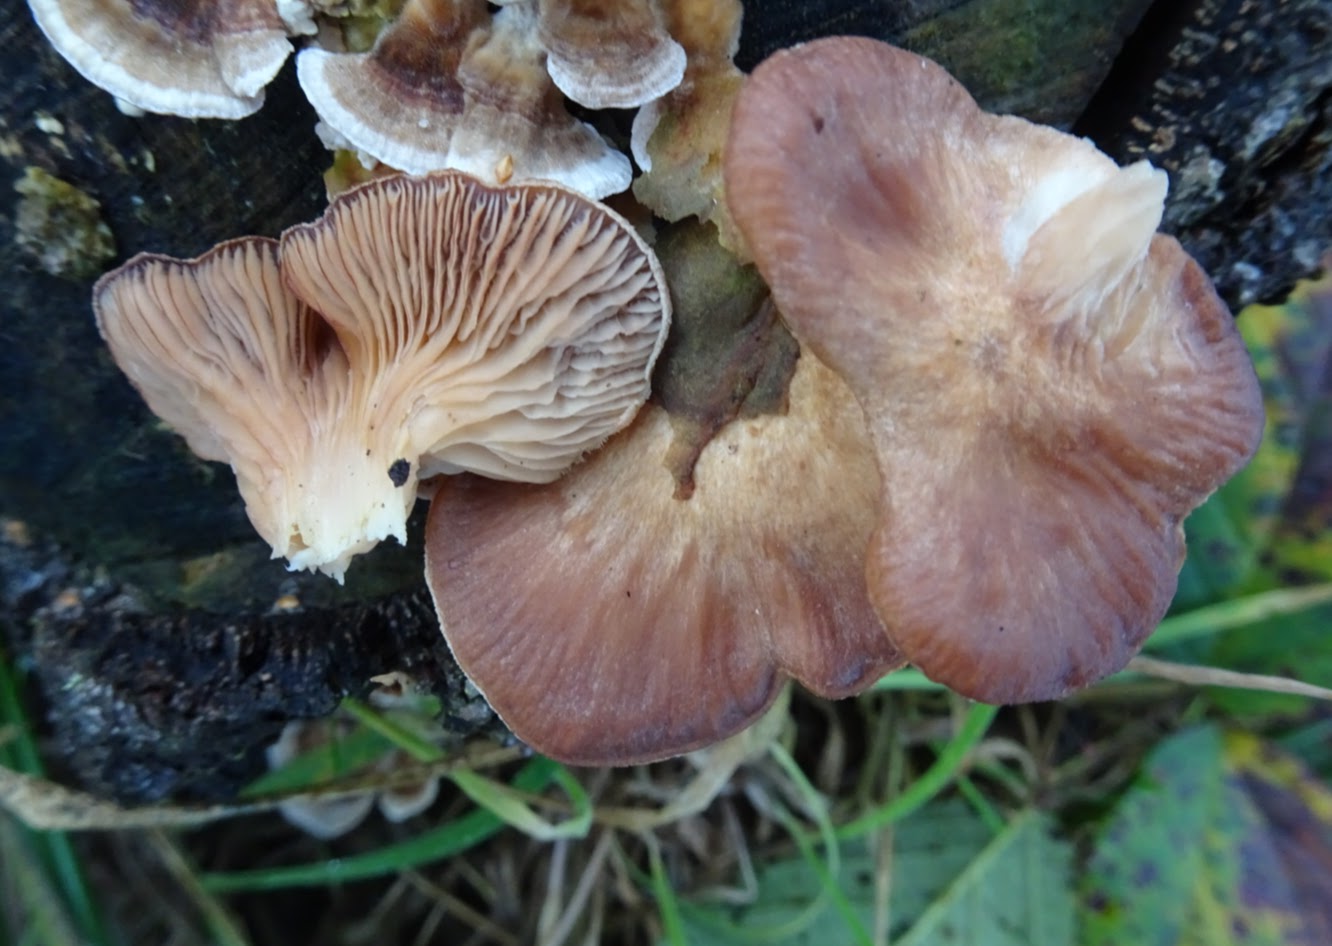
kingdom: Fungi
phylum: Basidiomycota
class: Agaricomycetes
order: Polyporales
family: Panaceae
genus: Panus
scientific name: Panus conchatus
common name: filtstokket læderhat
